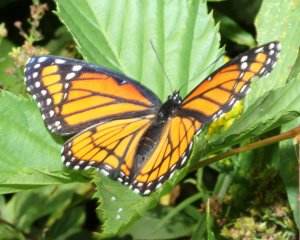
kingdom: Animalia
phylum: Arthropoda
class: Insecta
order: Lepidoptera
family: Nymphalidae
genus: Limenitis
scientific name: Limenitis archippus
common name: Viceroy
